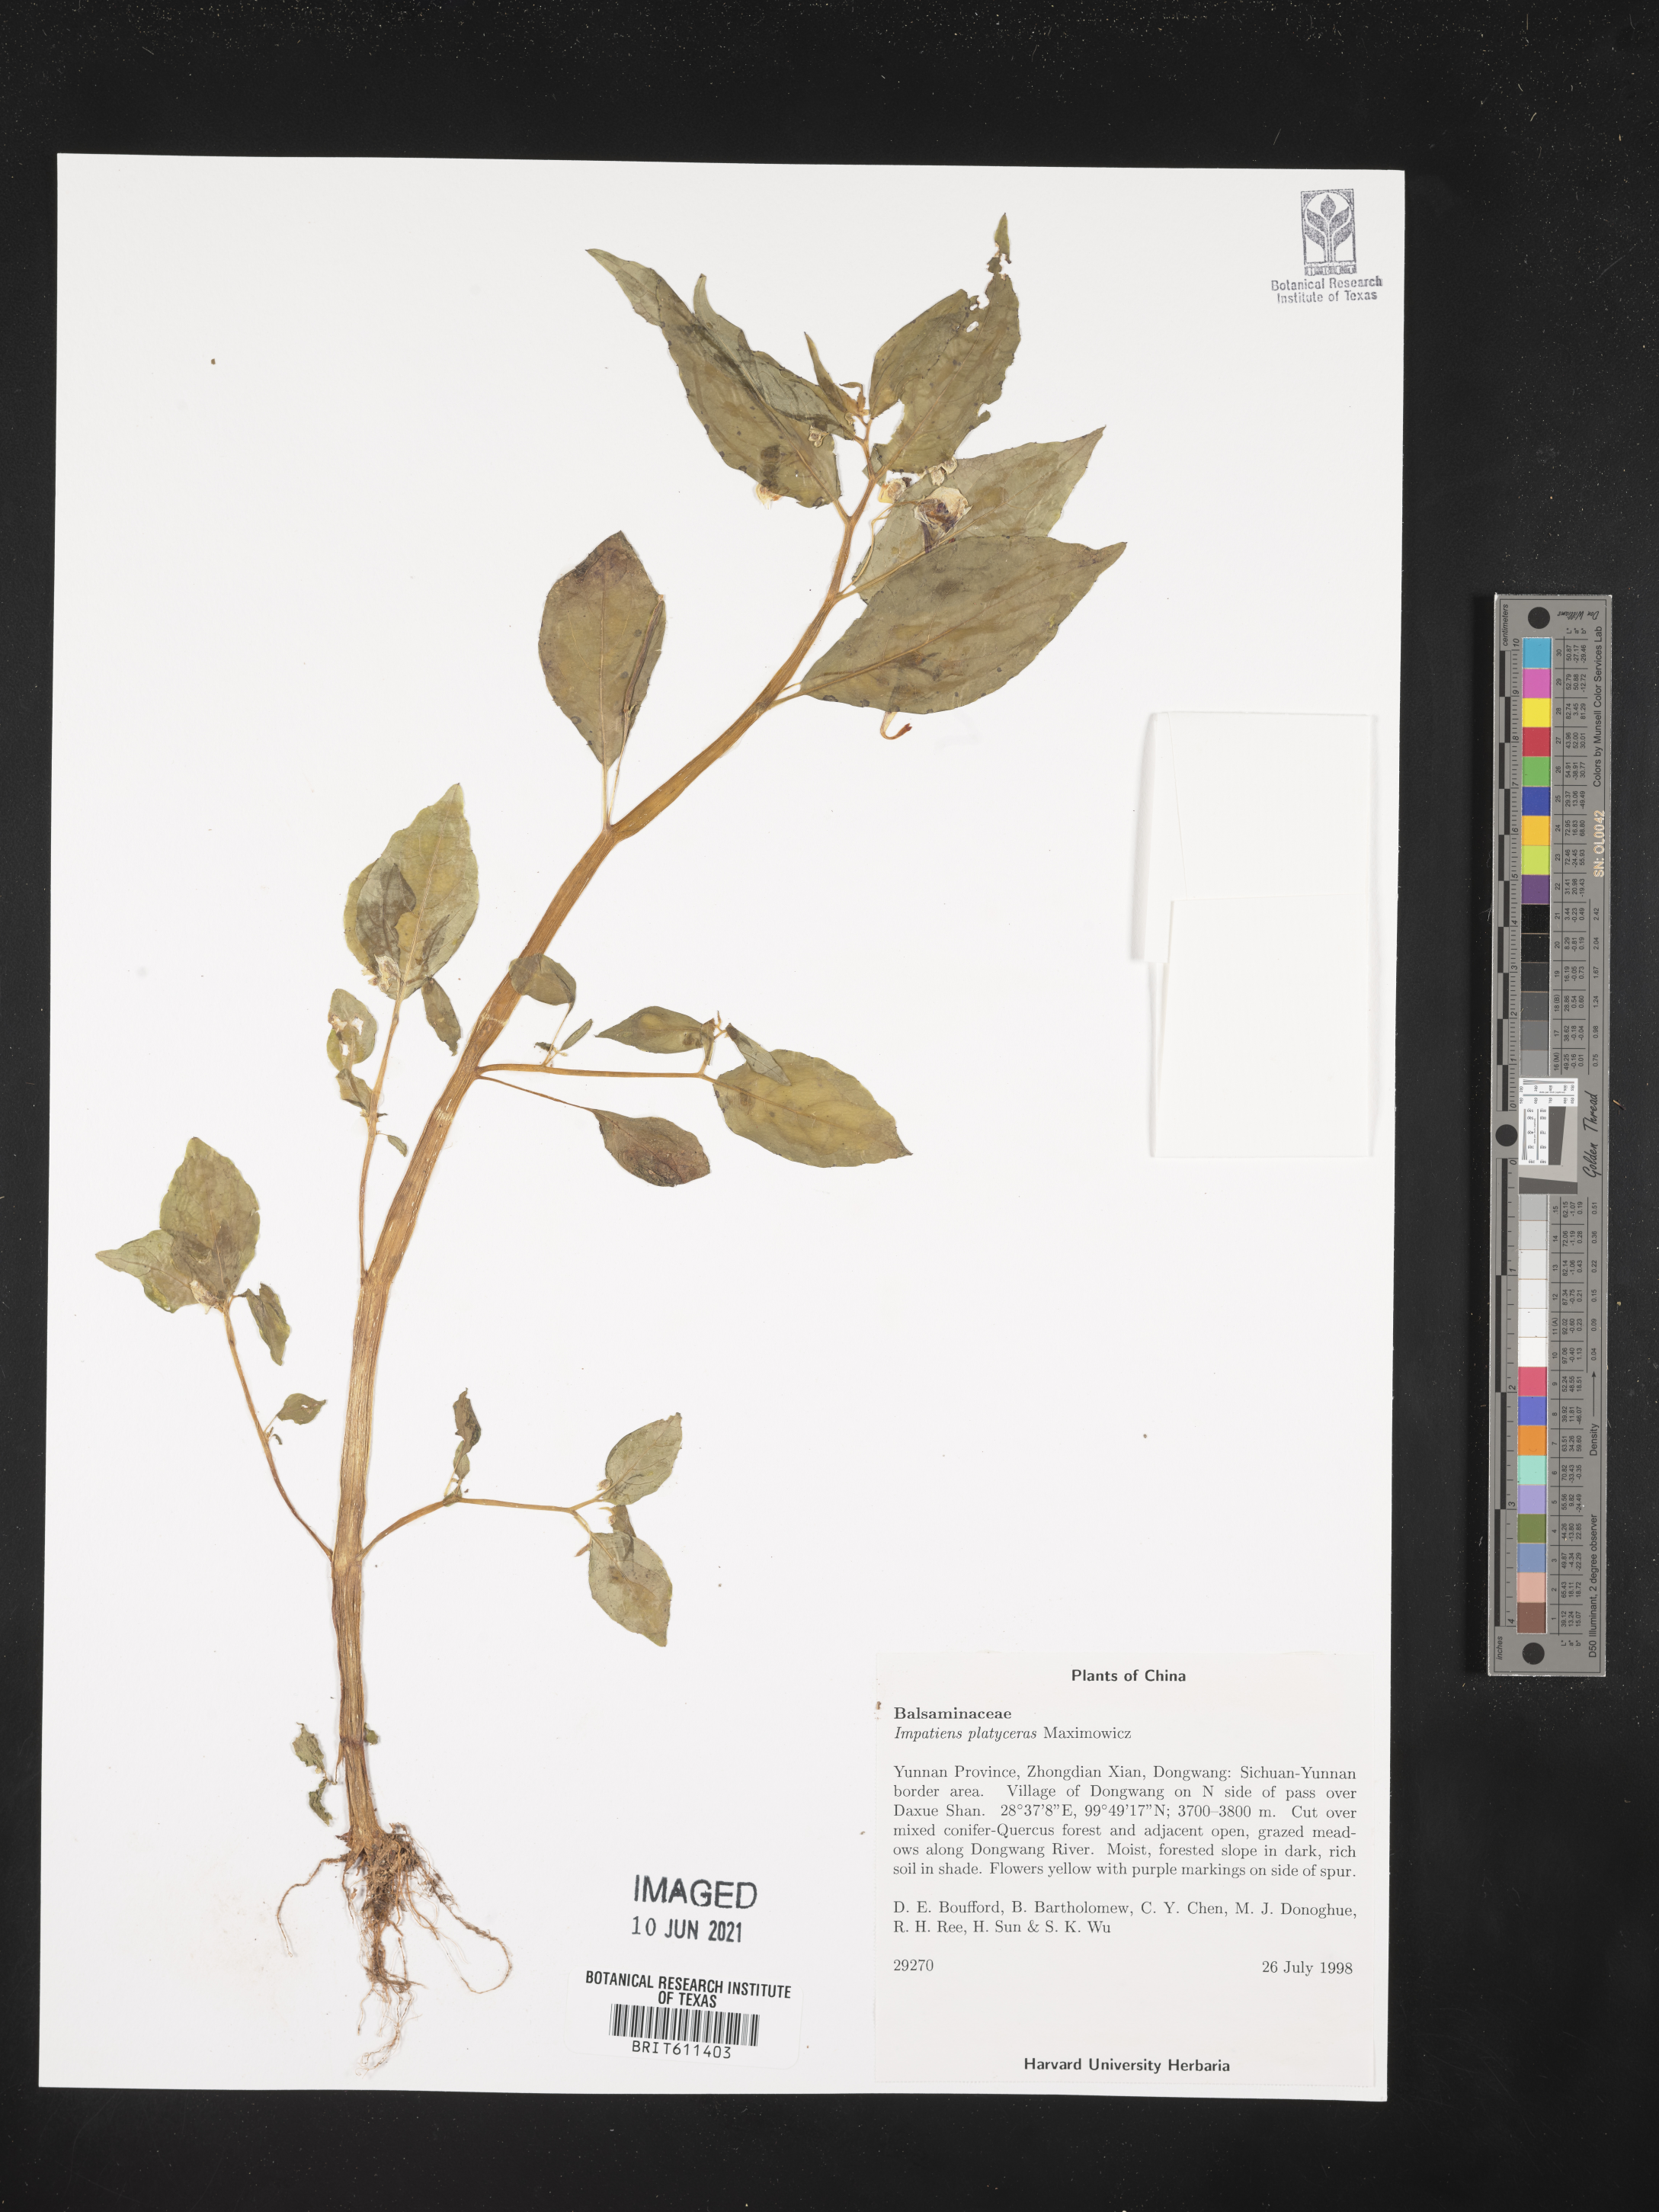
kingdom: Plantae
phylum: Tracheophyta
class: Magnoliopsida
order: Ericales
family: Balsaminaceae
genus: Impatiens
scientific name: Impatiens platyceras
